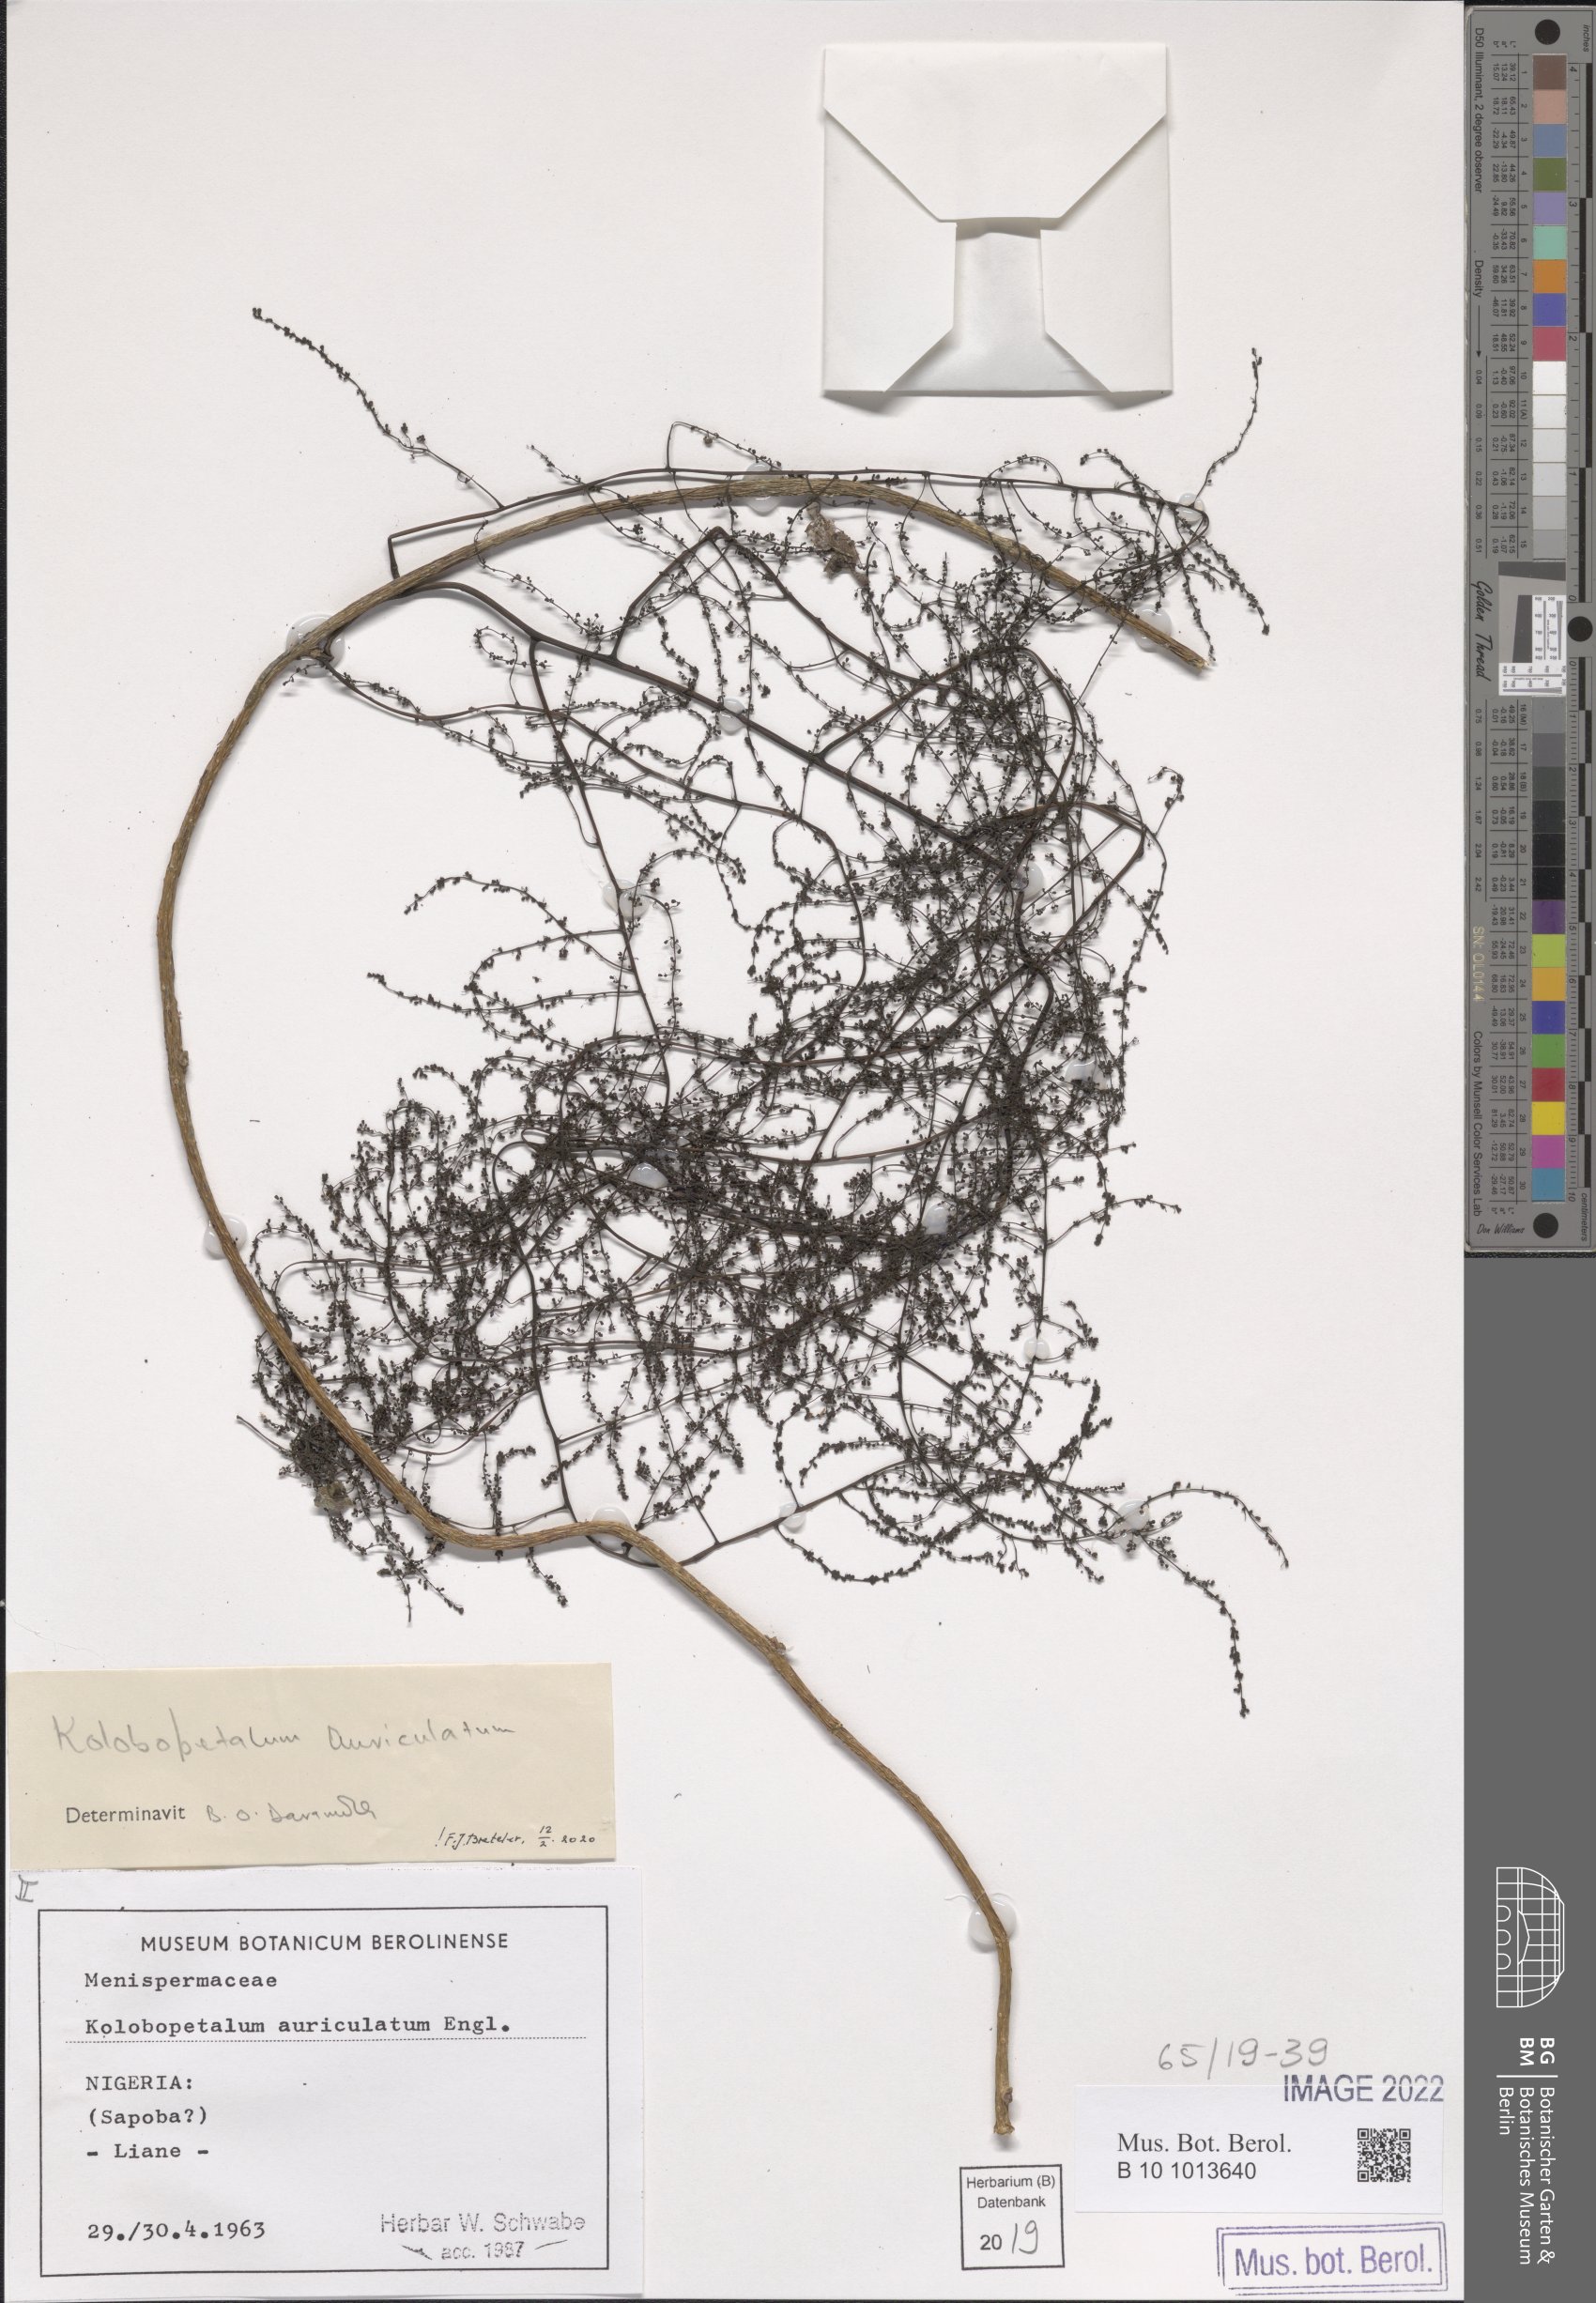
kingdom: Plantae
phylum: Tracheophyta
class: Magnoliopsida
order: Ranunculales
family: Menispermaceae
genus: Kolobopetalum
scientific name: Kolobopetalum auriculatum
